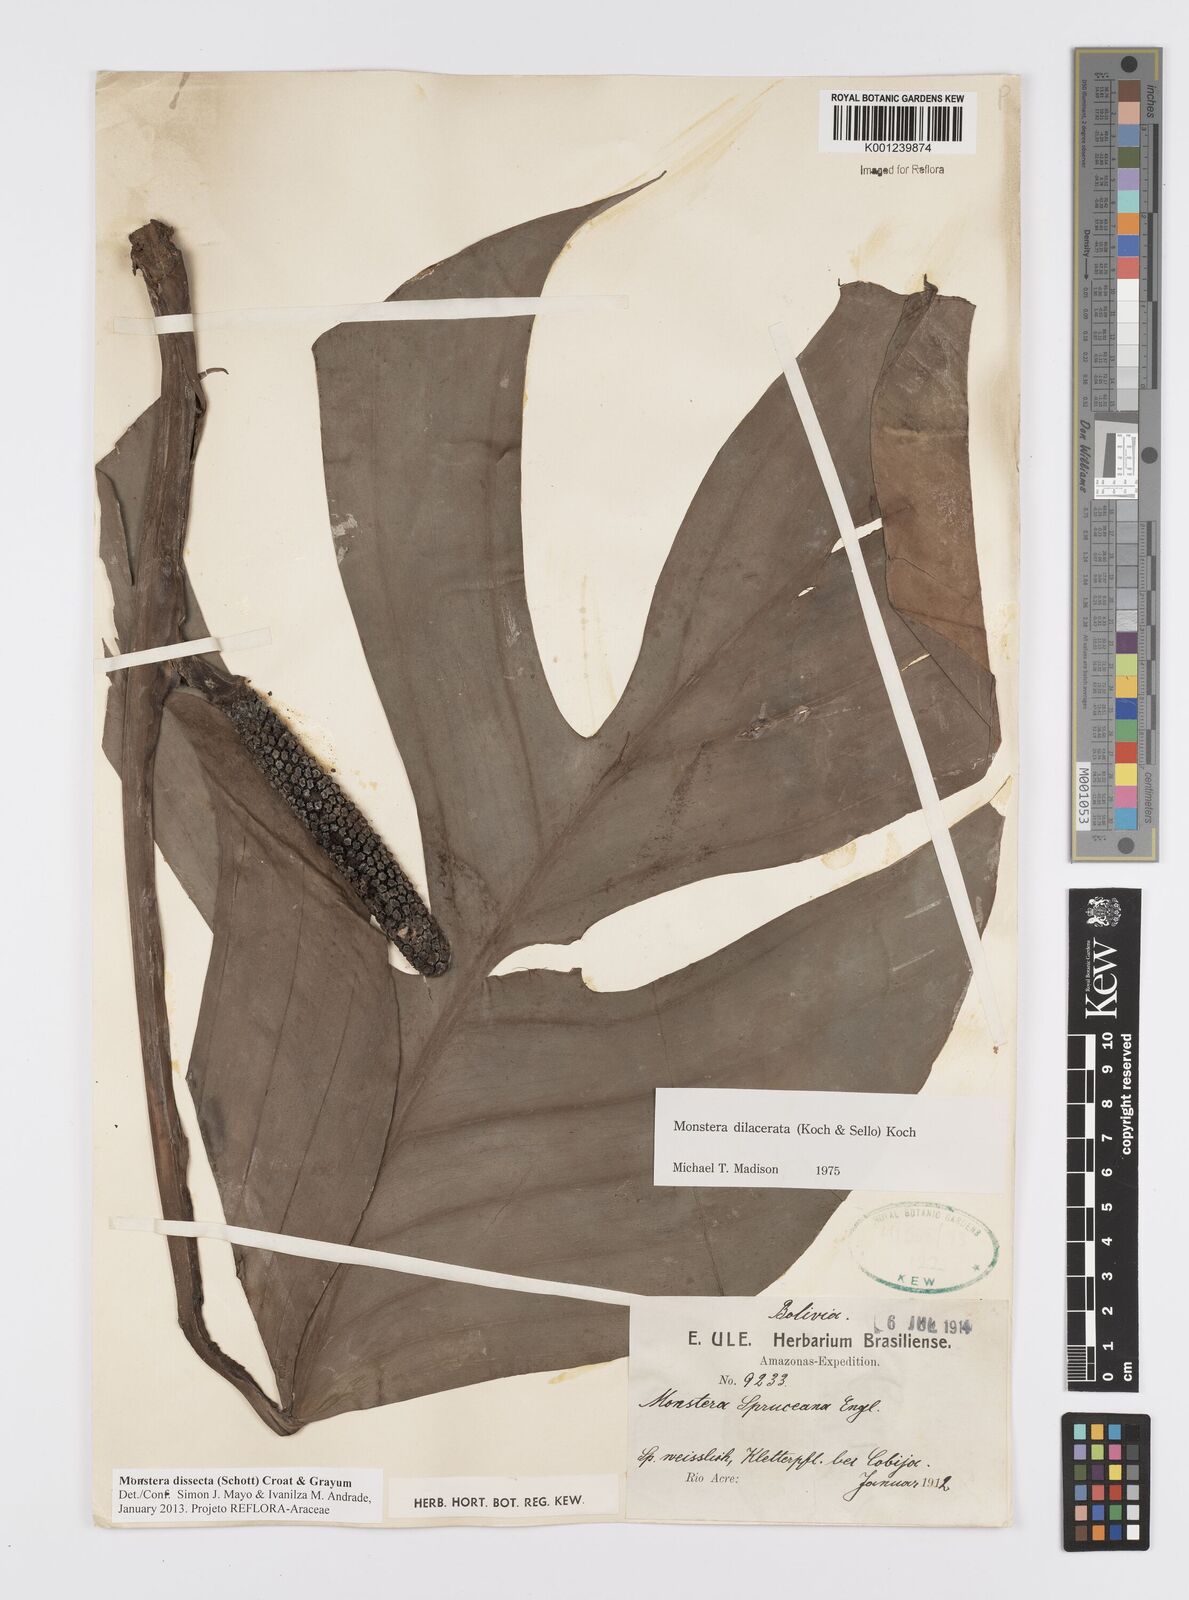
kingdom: Plantae
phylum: Tracheophyta
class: Liliopsida
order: Alismatales
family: Araceae
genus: Monstera
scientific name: Monstera dissecta
